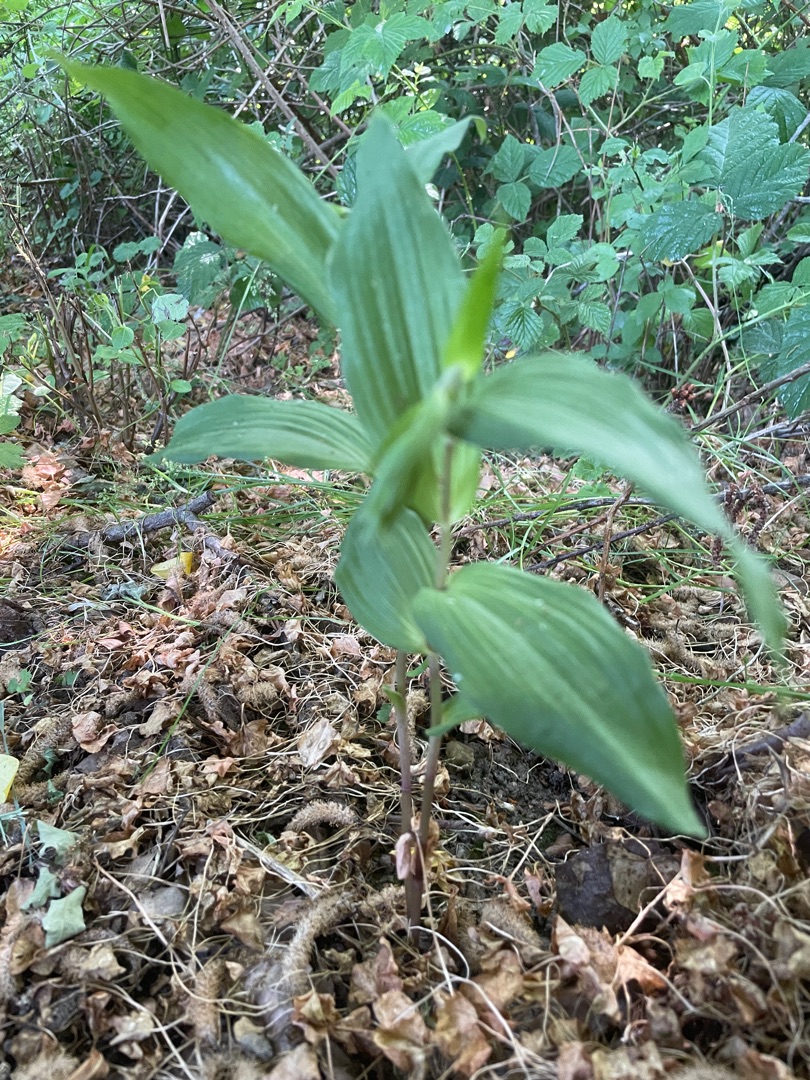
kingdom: Plantae
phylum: Tracheophyta
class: Liliopsida
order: Asparagales
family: Orchidaceae
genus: Epipactis
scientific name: Epipactis helleborine
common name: Skov-hullæbe
